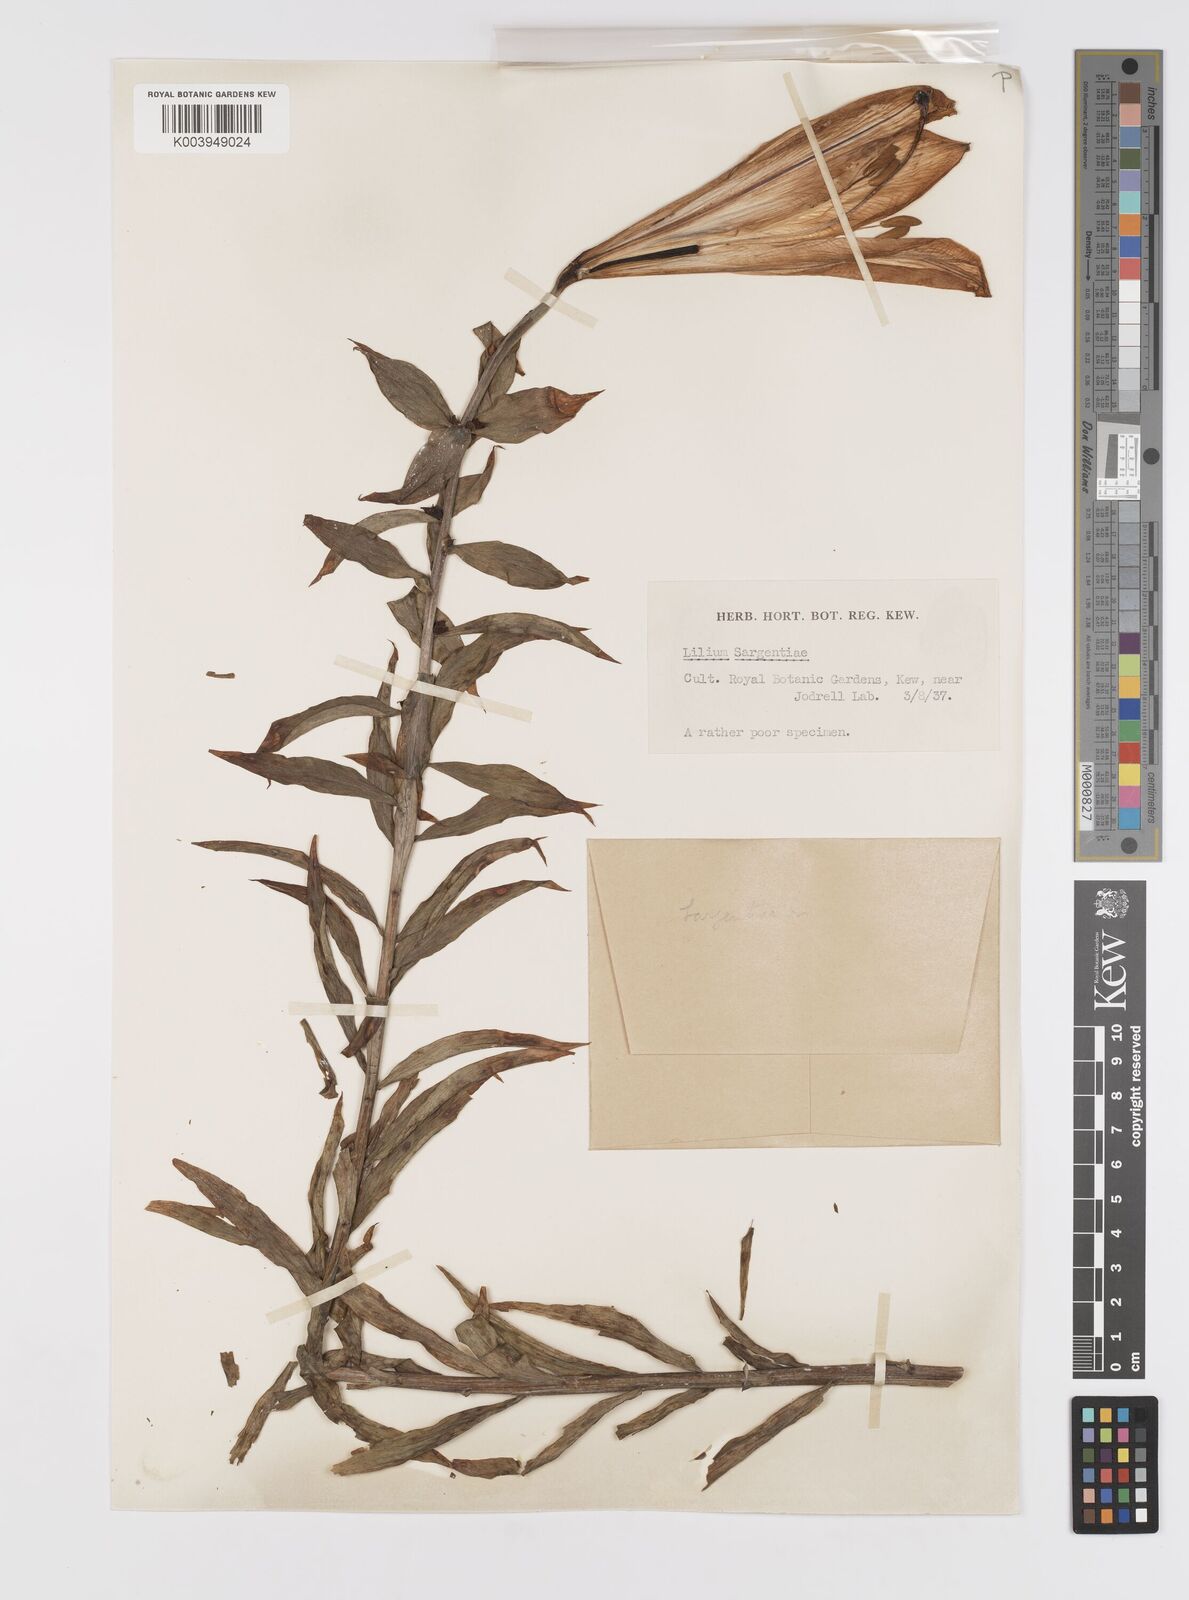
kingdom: Plantae
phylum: Tracheophyta
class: Liliopsida
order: Liliales
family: Liliaceae
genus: Lilium
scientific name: Lilium sargentiae
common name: Sargent lily
